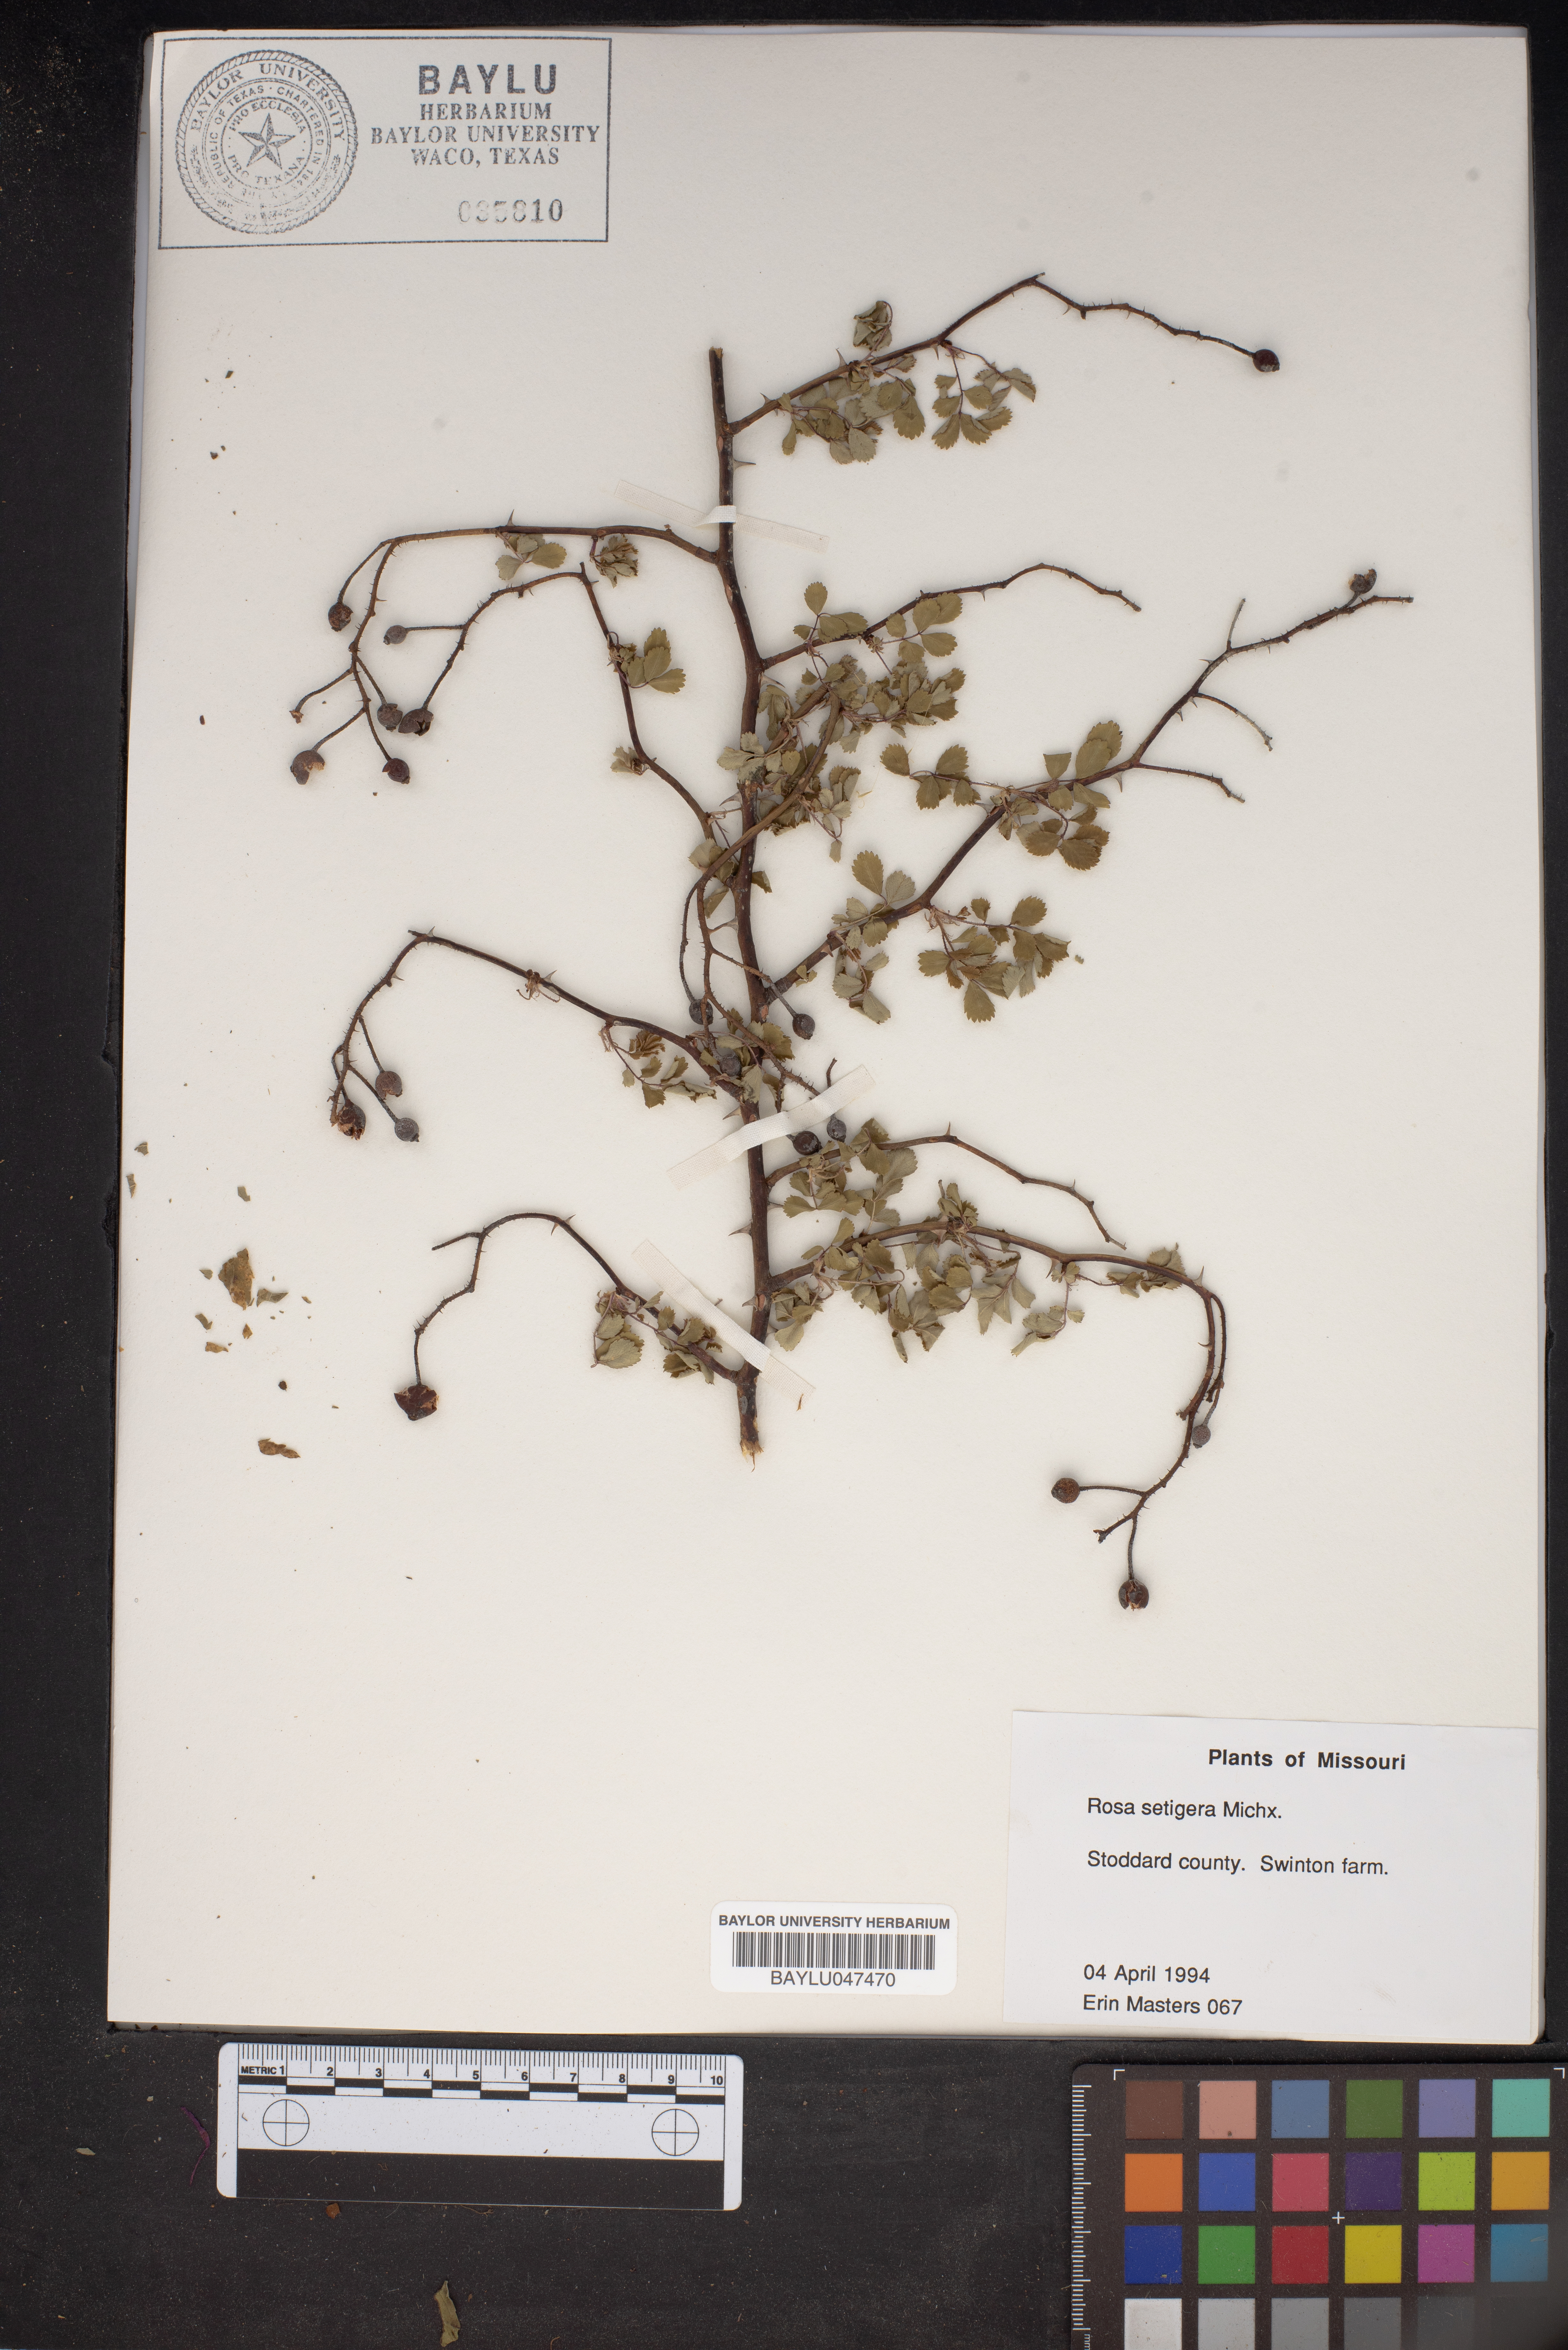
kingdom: Plantae
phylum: Tracheophyta
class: Magnoliopsida
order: Rosales
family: Rosaceae
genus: Rosa
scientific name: Rosa setigera
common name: Prairie rose
